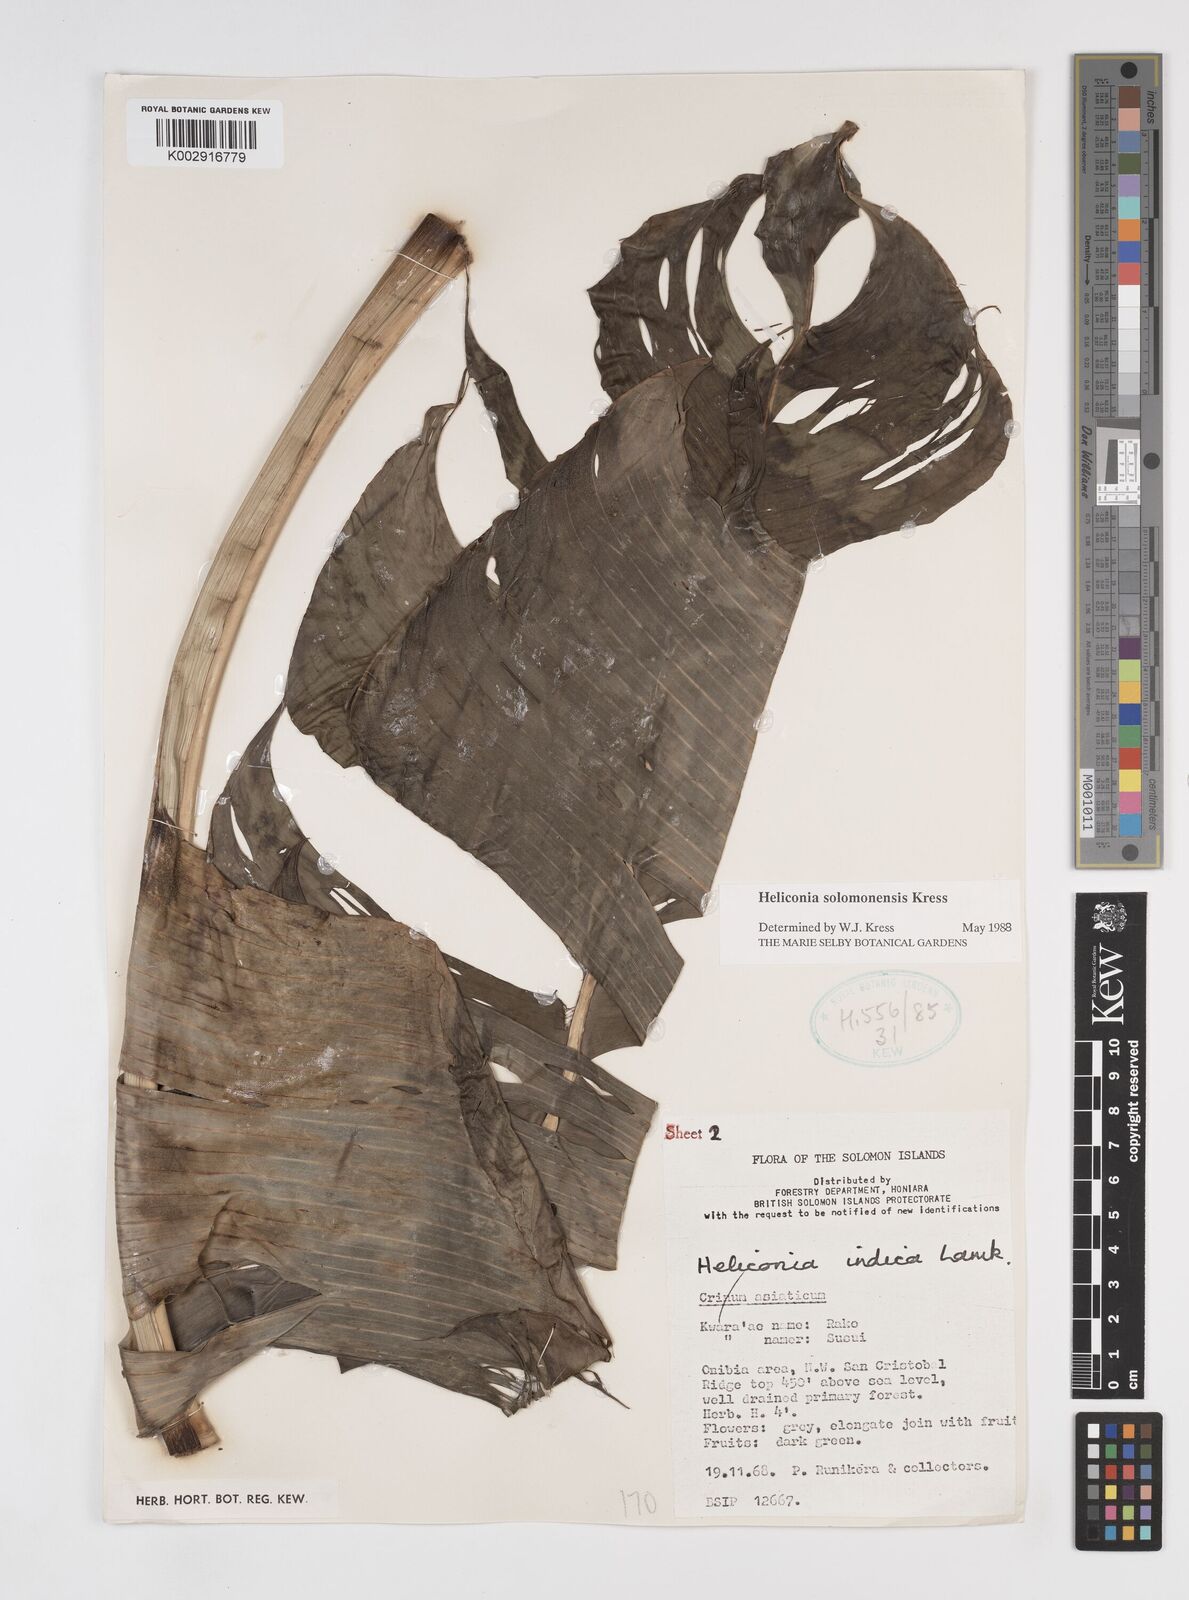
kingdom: Plantae
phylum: Tracheophyta
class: Liliopsida
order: Zingiberales
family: Heliconiaceae
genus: Heliconia
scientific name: Heliconia solomonensis
